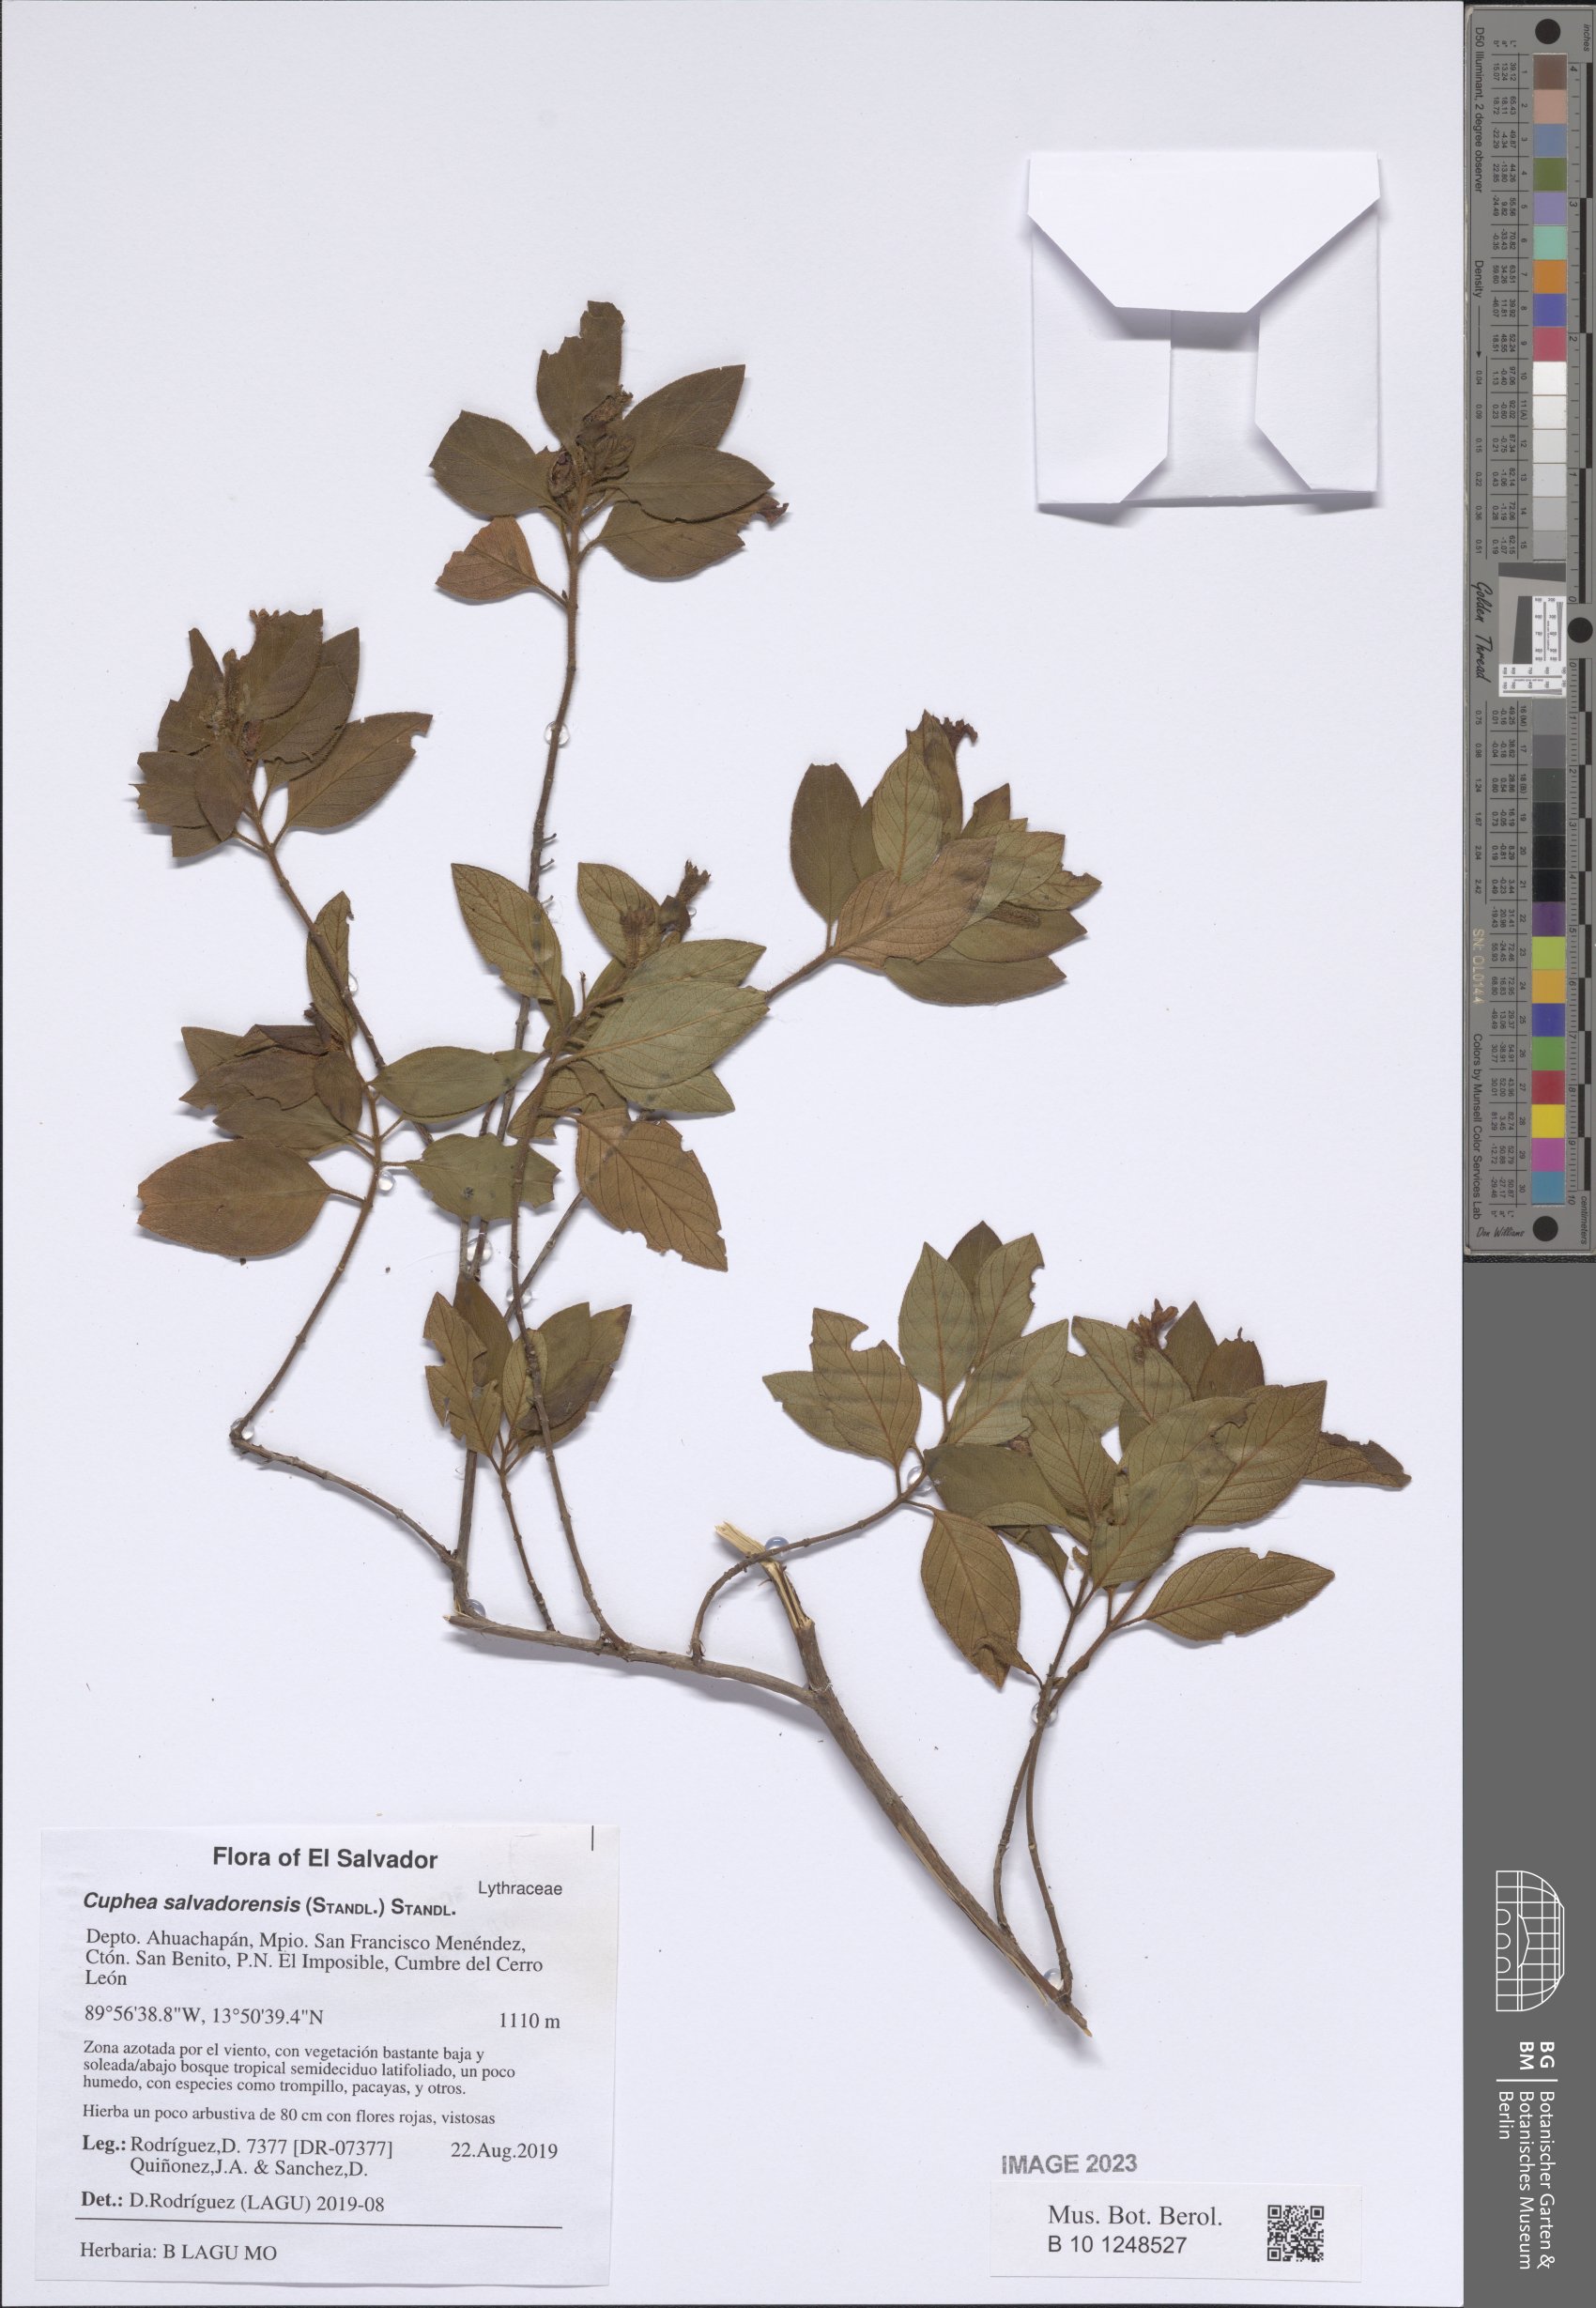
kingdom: Plantae
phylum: Tracheophyta
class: Magnoliopsida
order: Myrtales
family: Lythraceae
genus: Cuphea
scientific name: Cuphea salvadorensis
